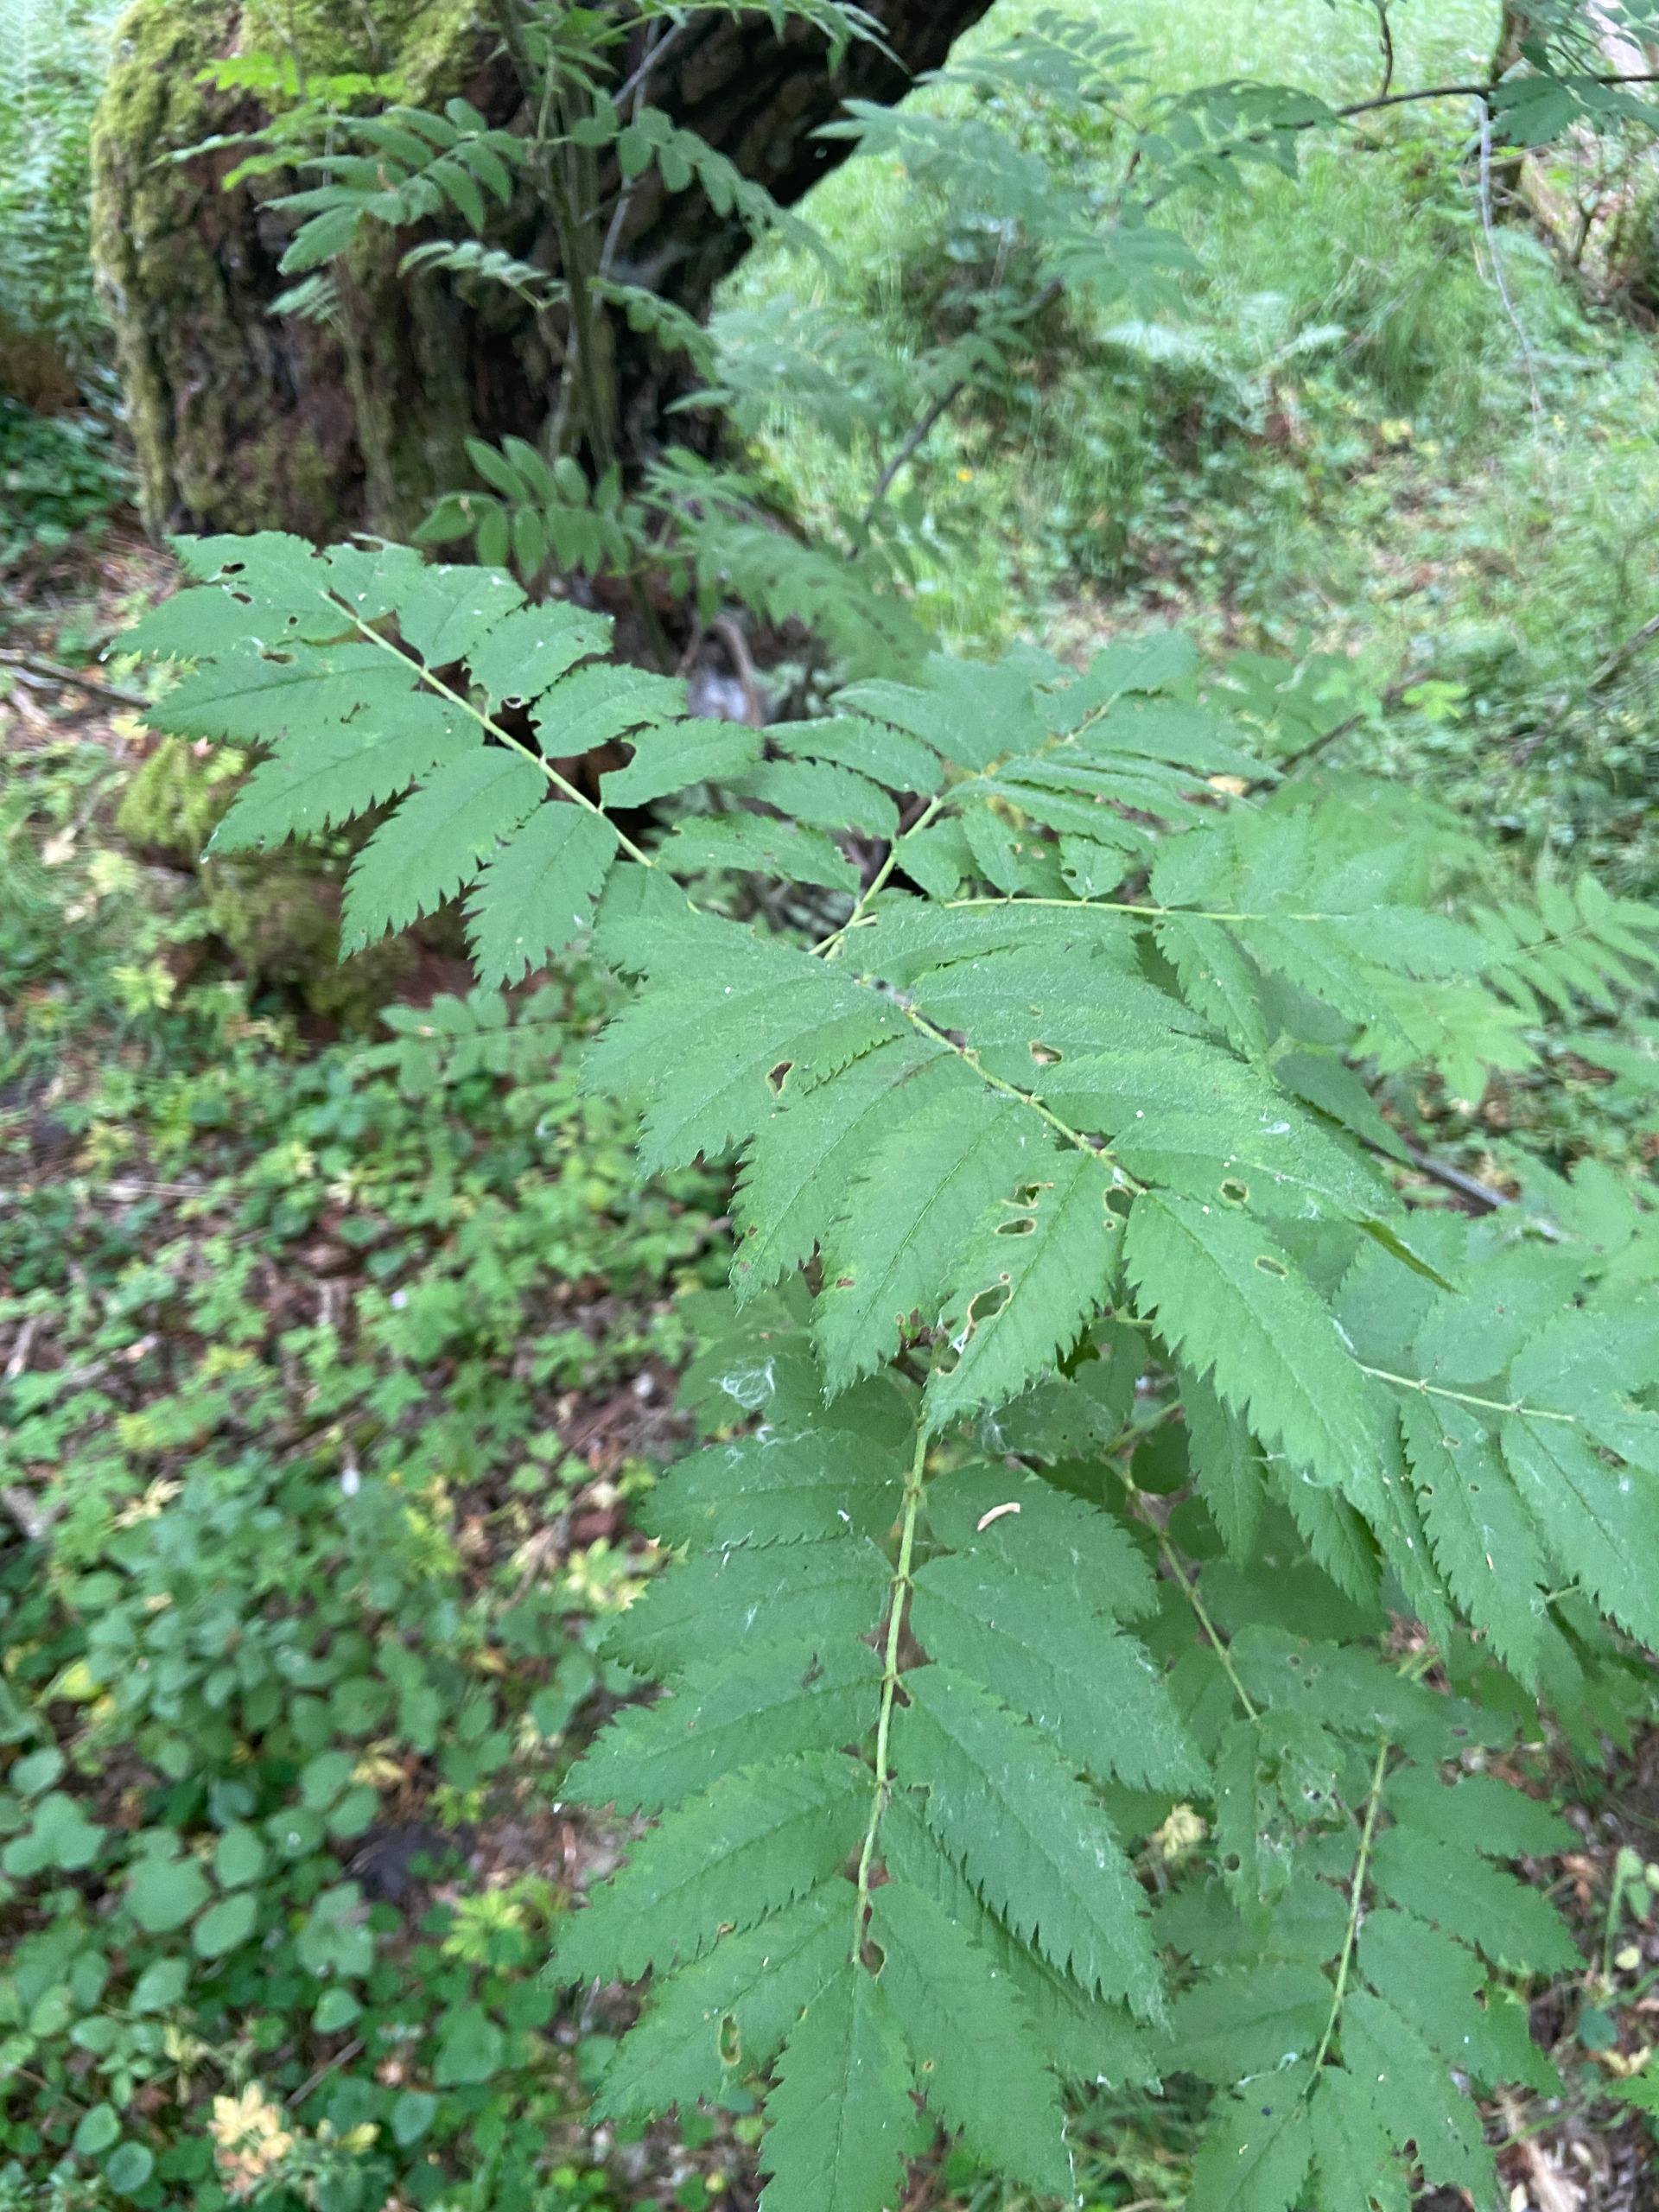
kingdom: Plantae
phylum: Tracheophyta
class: Magnoliopsida
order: Rosales
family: Rosaceae
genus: Sorbus
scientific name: Sorbus aucuparia
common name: Almindelig røn
